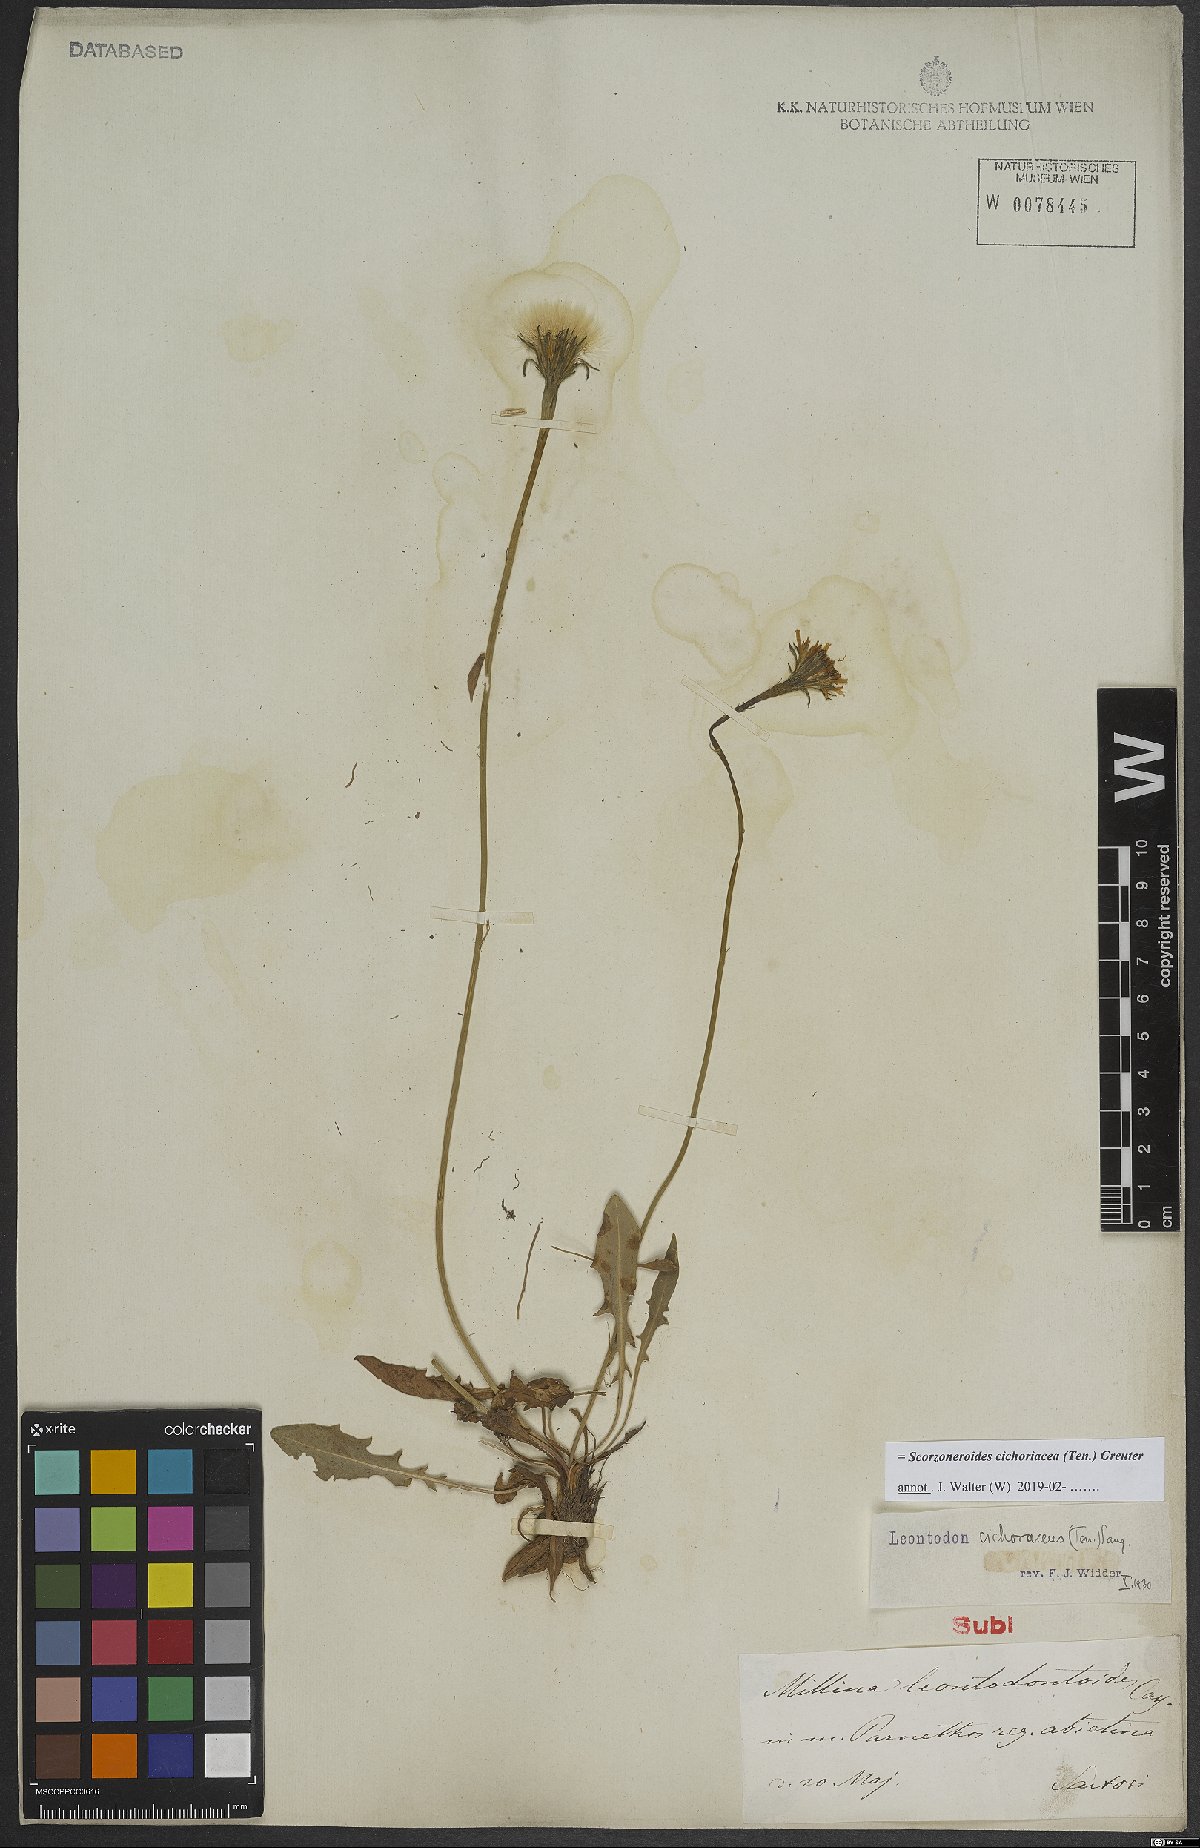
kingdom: Plantae
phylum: Tracheophyta
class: Magnoliopsida
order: Asterales
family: Asteraceae
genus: Scorzoneroides
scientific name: Scorzoneroides cichoriacea
